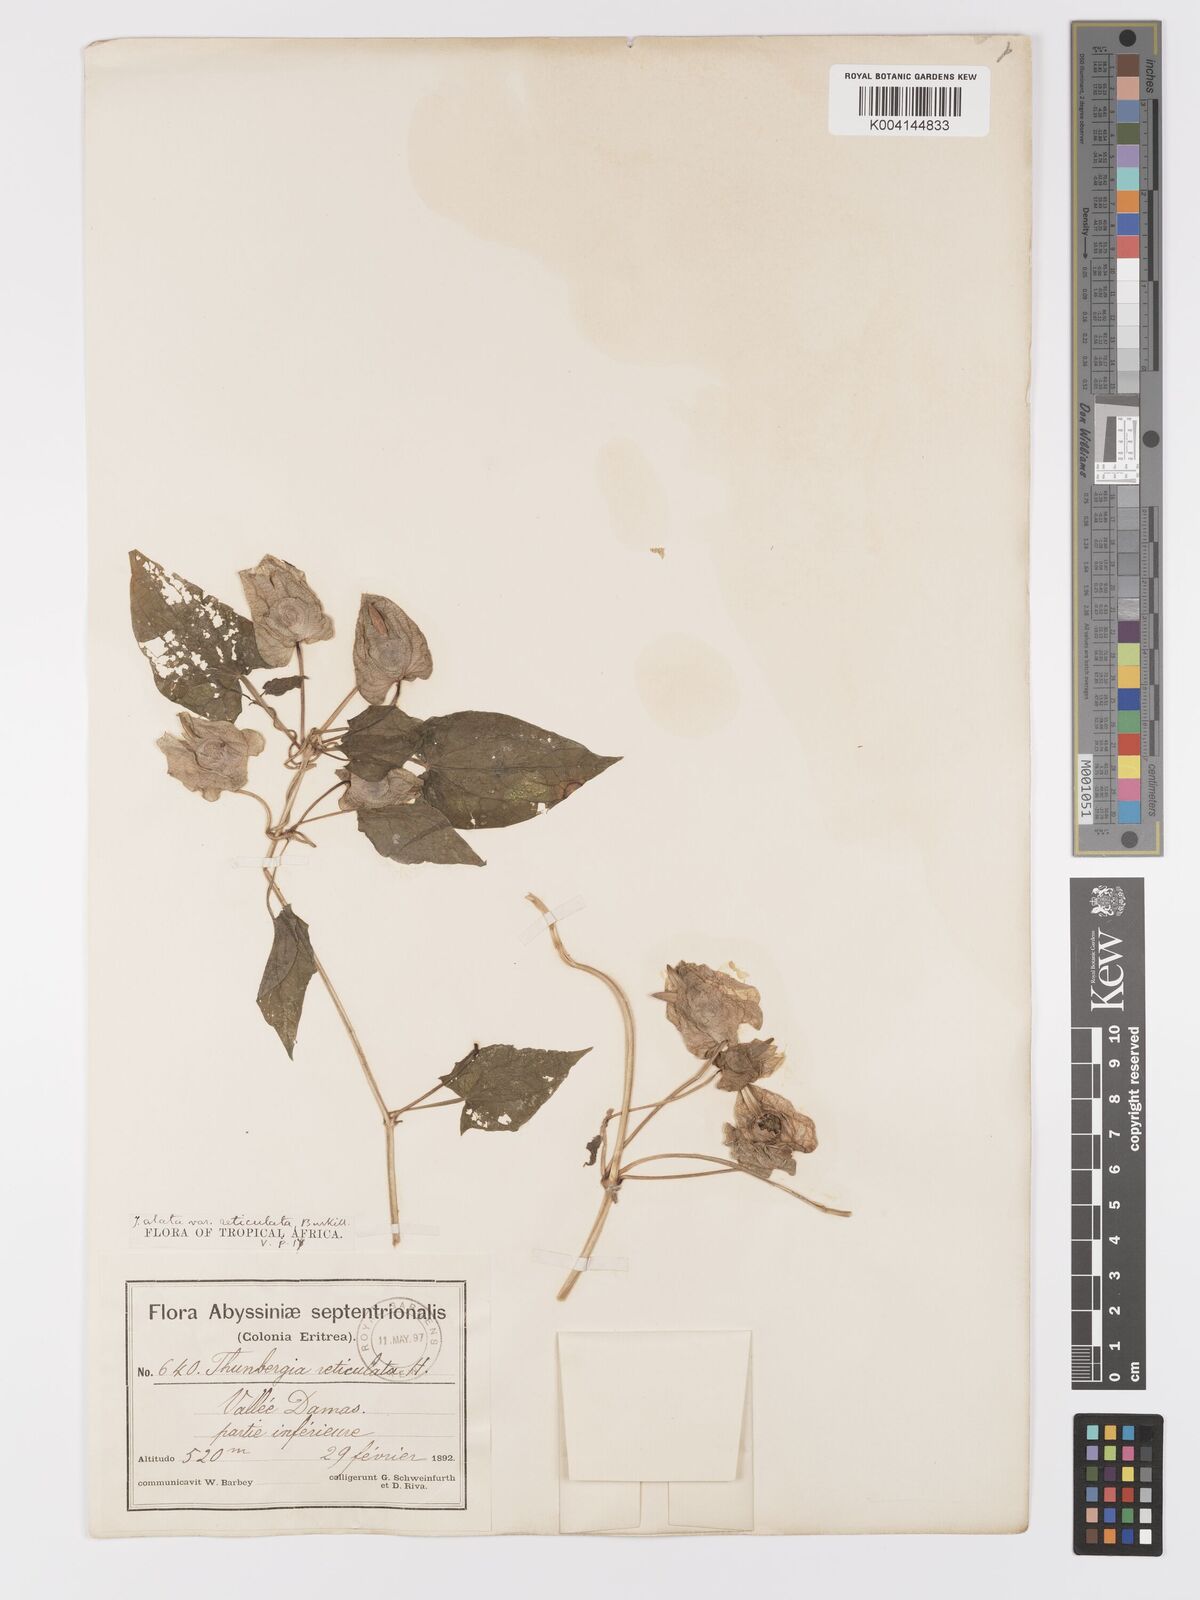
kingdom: Plantae
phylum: Tracheophyta
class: Magnoliopsida
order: Lamiales
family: Acanthaceae
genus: Thunbergia
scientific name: Thunbergia reticulata
